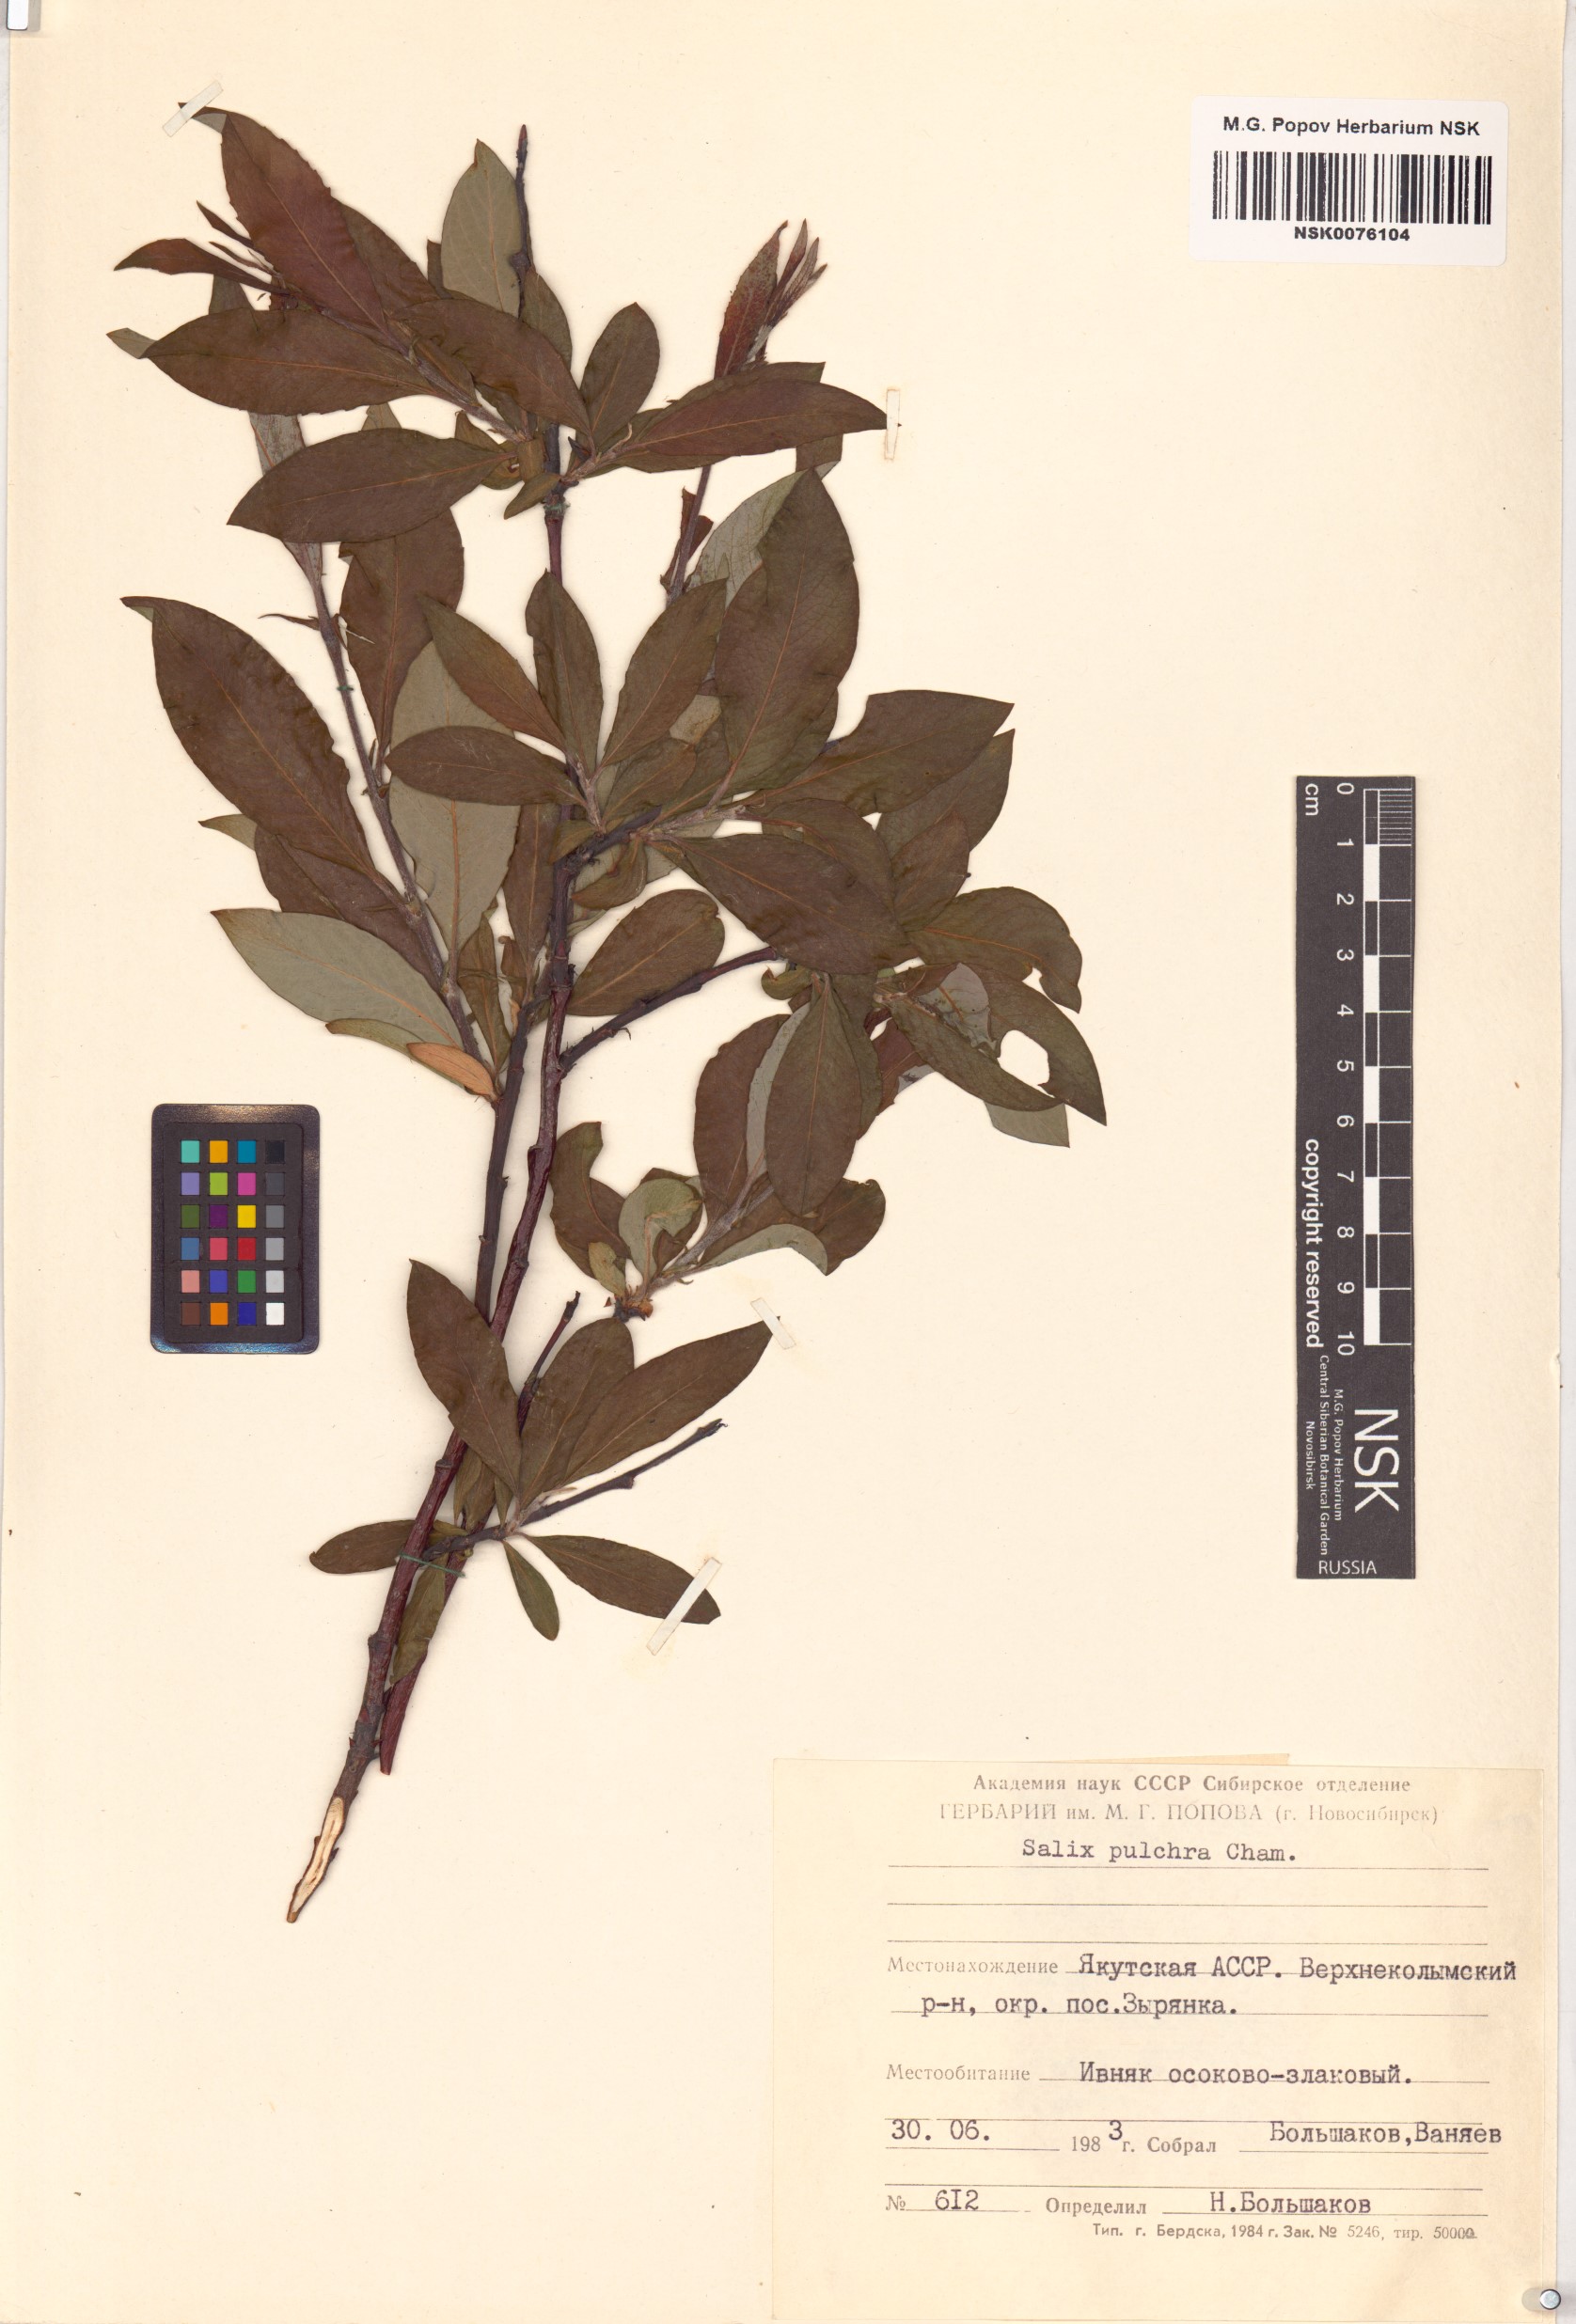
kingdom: Plantae
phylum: Tracheophyta
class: Magnoliopsida
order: Malpighiales
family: Salicaceae
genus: Salix
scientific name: Salix pulchra
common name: Diamond-leaved willow
